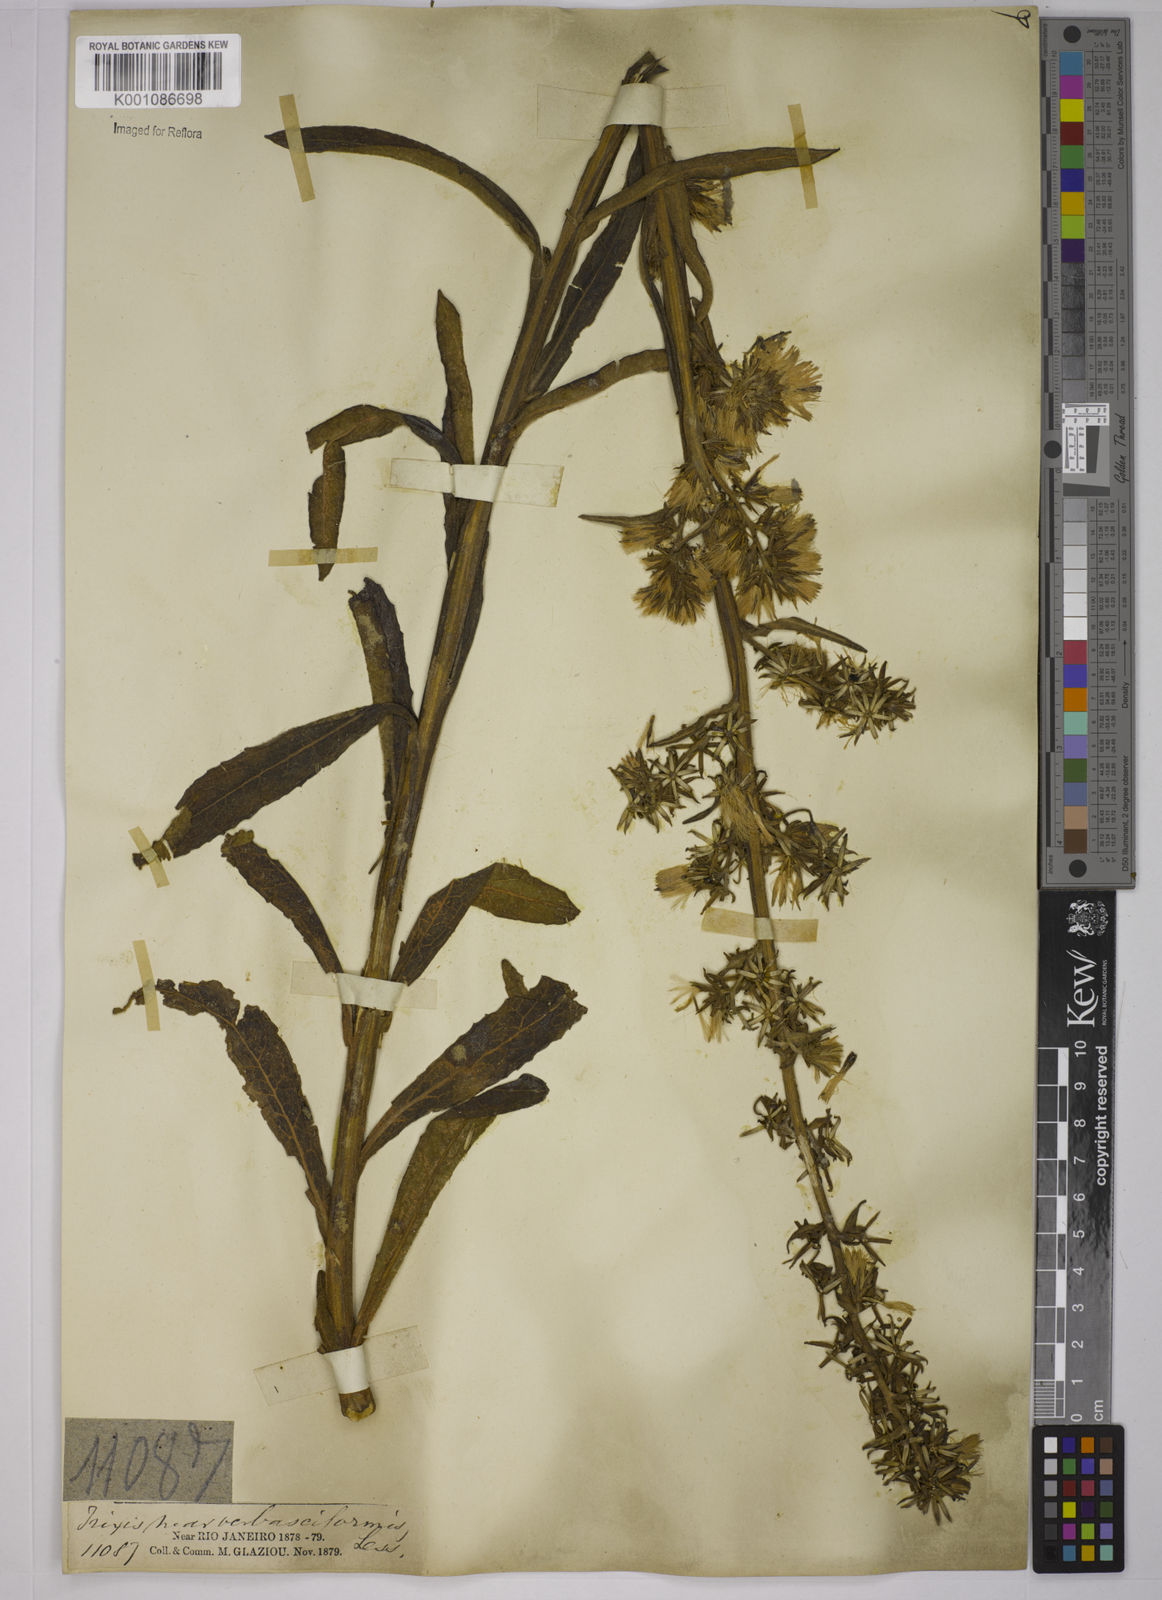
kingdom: Plantae
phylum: Tracheophyta
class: Magnoliopsida
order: Asterales
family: Asteraceae
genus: Trixis
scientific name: Trixis nobilis
